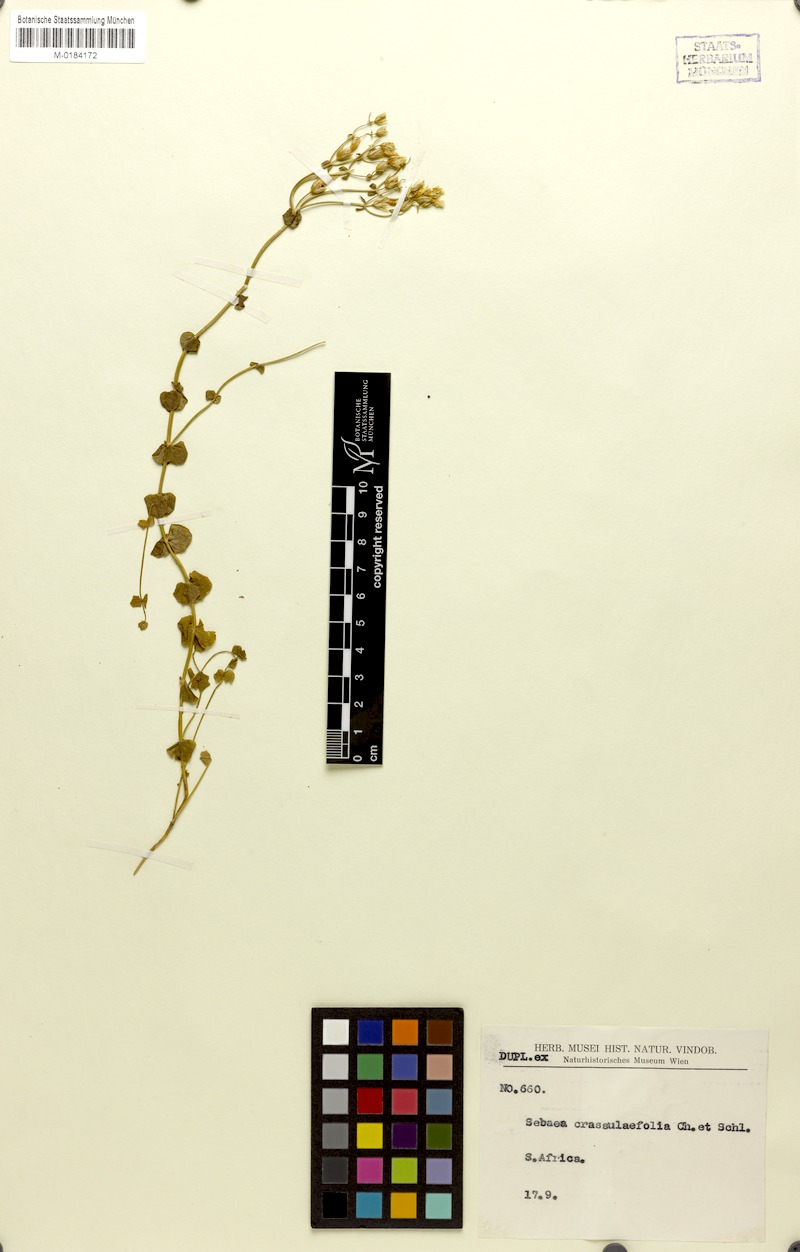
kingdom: Plantae
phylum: Tracheophyta
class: Magnoliopsida
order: Gentianales
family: Gentianaceae
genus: Sebaea
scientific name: Sebaea crassulifolia
